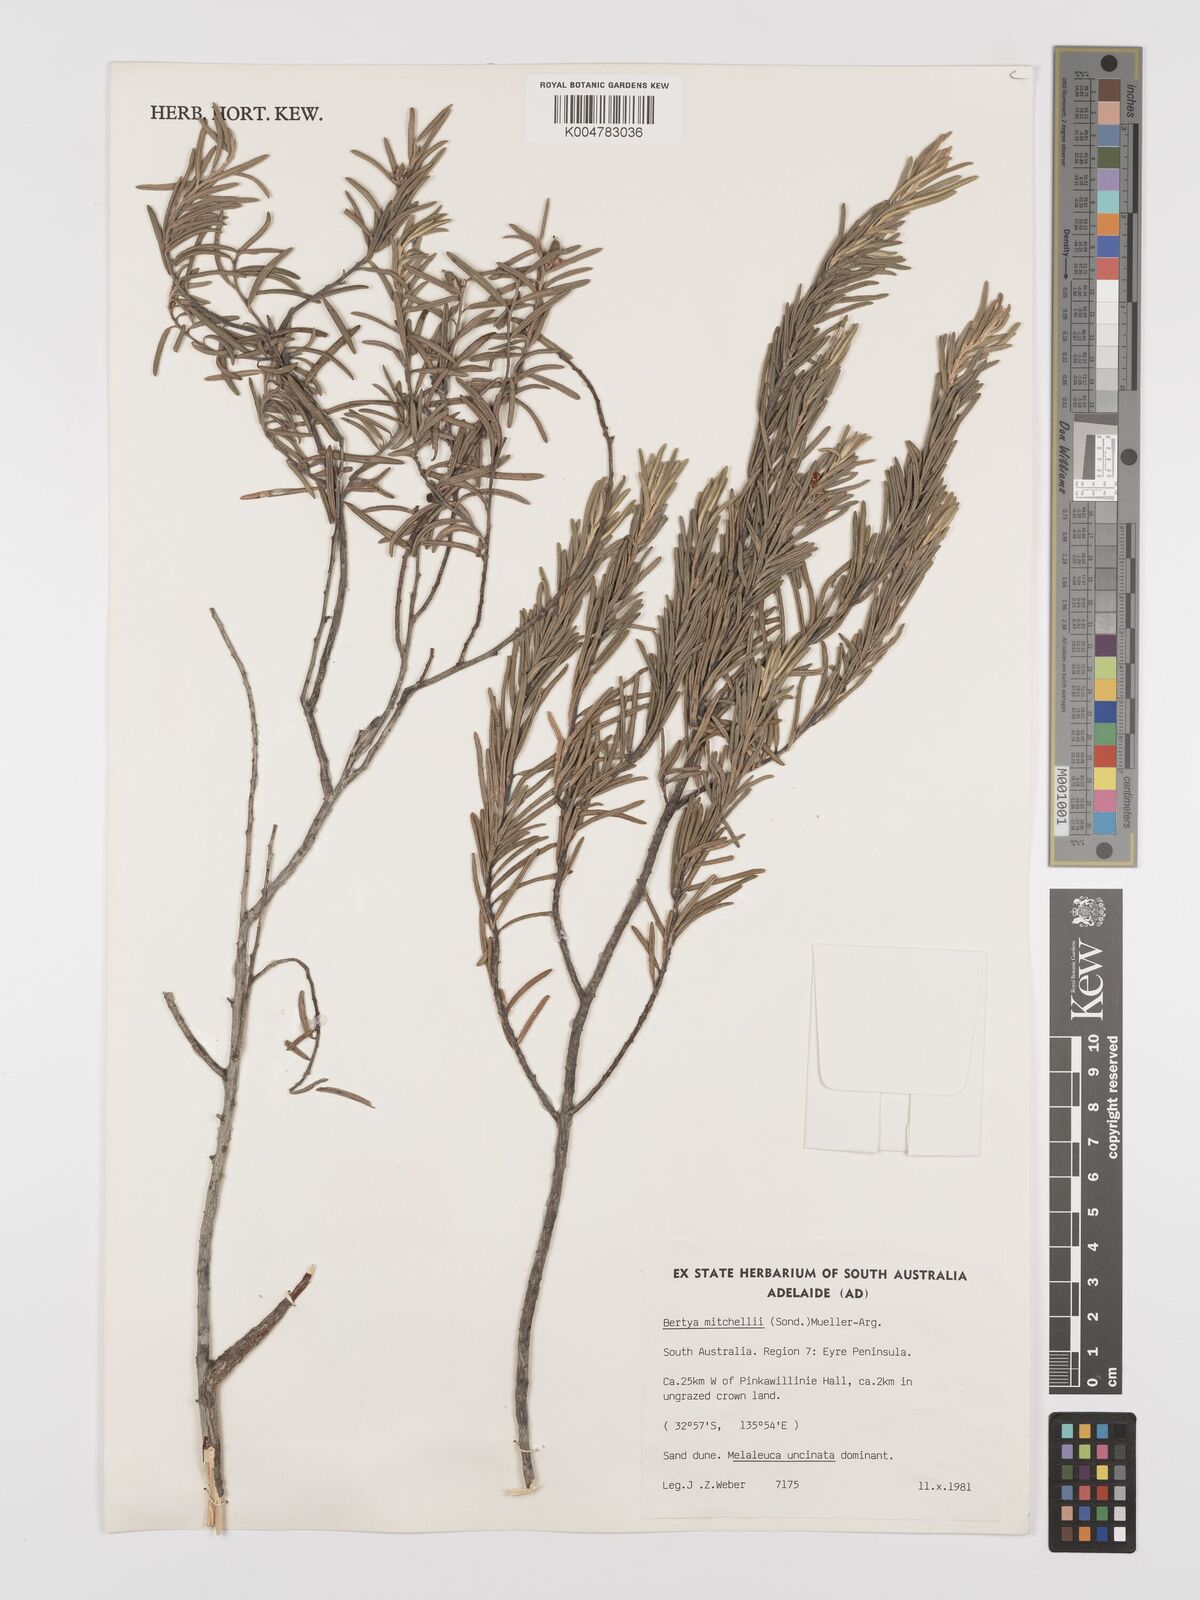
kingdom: Plantae
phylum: Tracheophyta
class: Magnoliopsida
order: Malpighiales
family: Euphorbiaceae
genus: Bertya
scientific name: Bertya oleifolia
